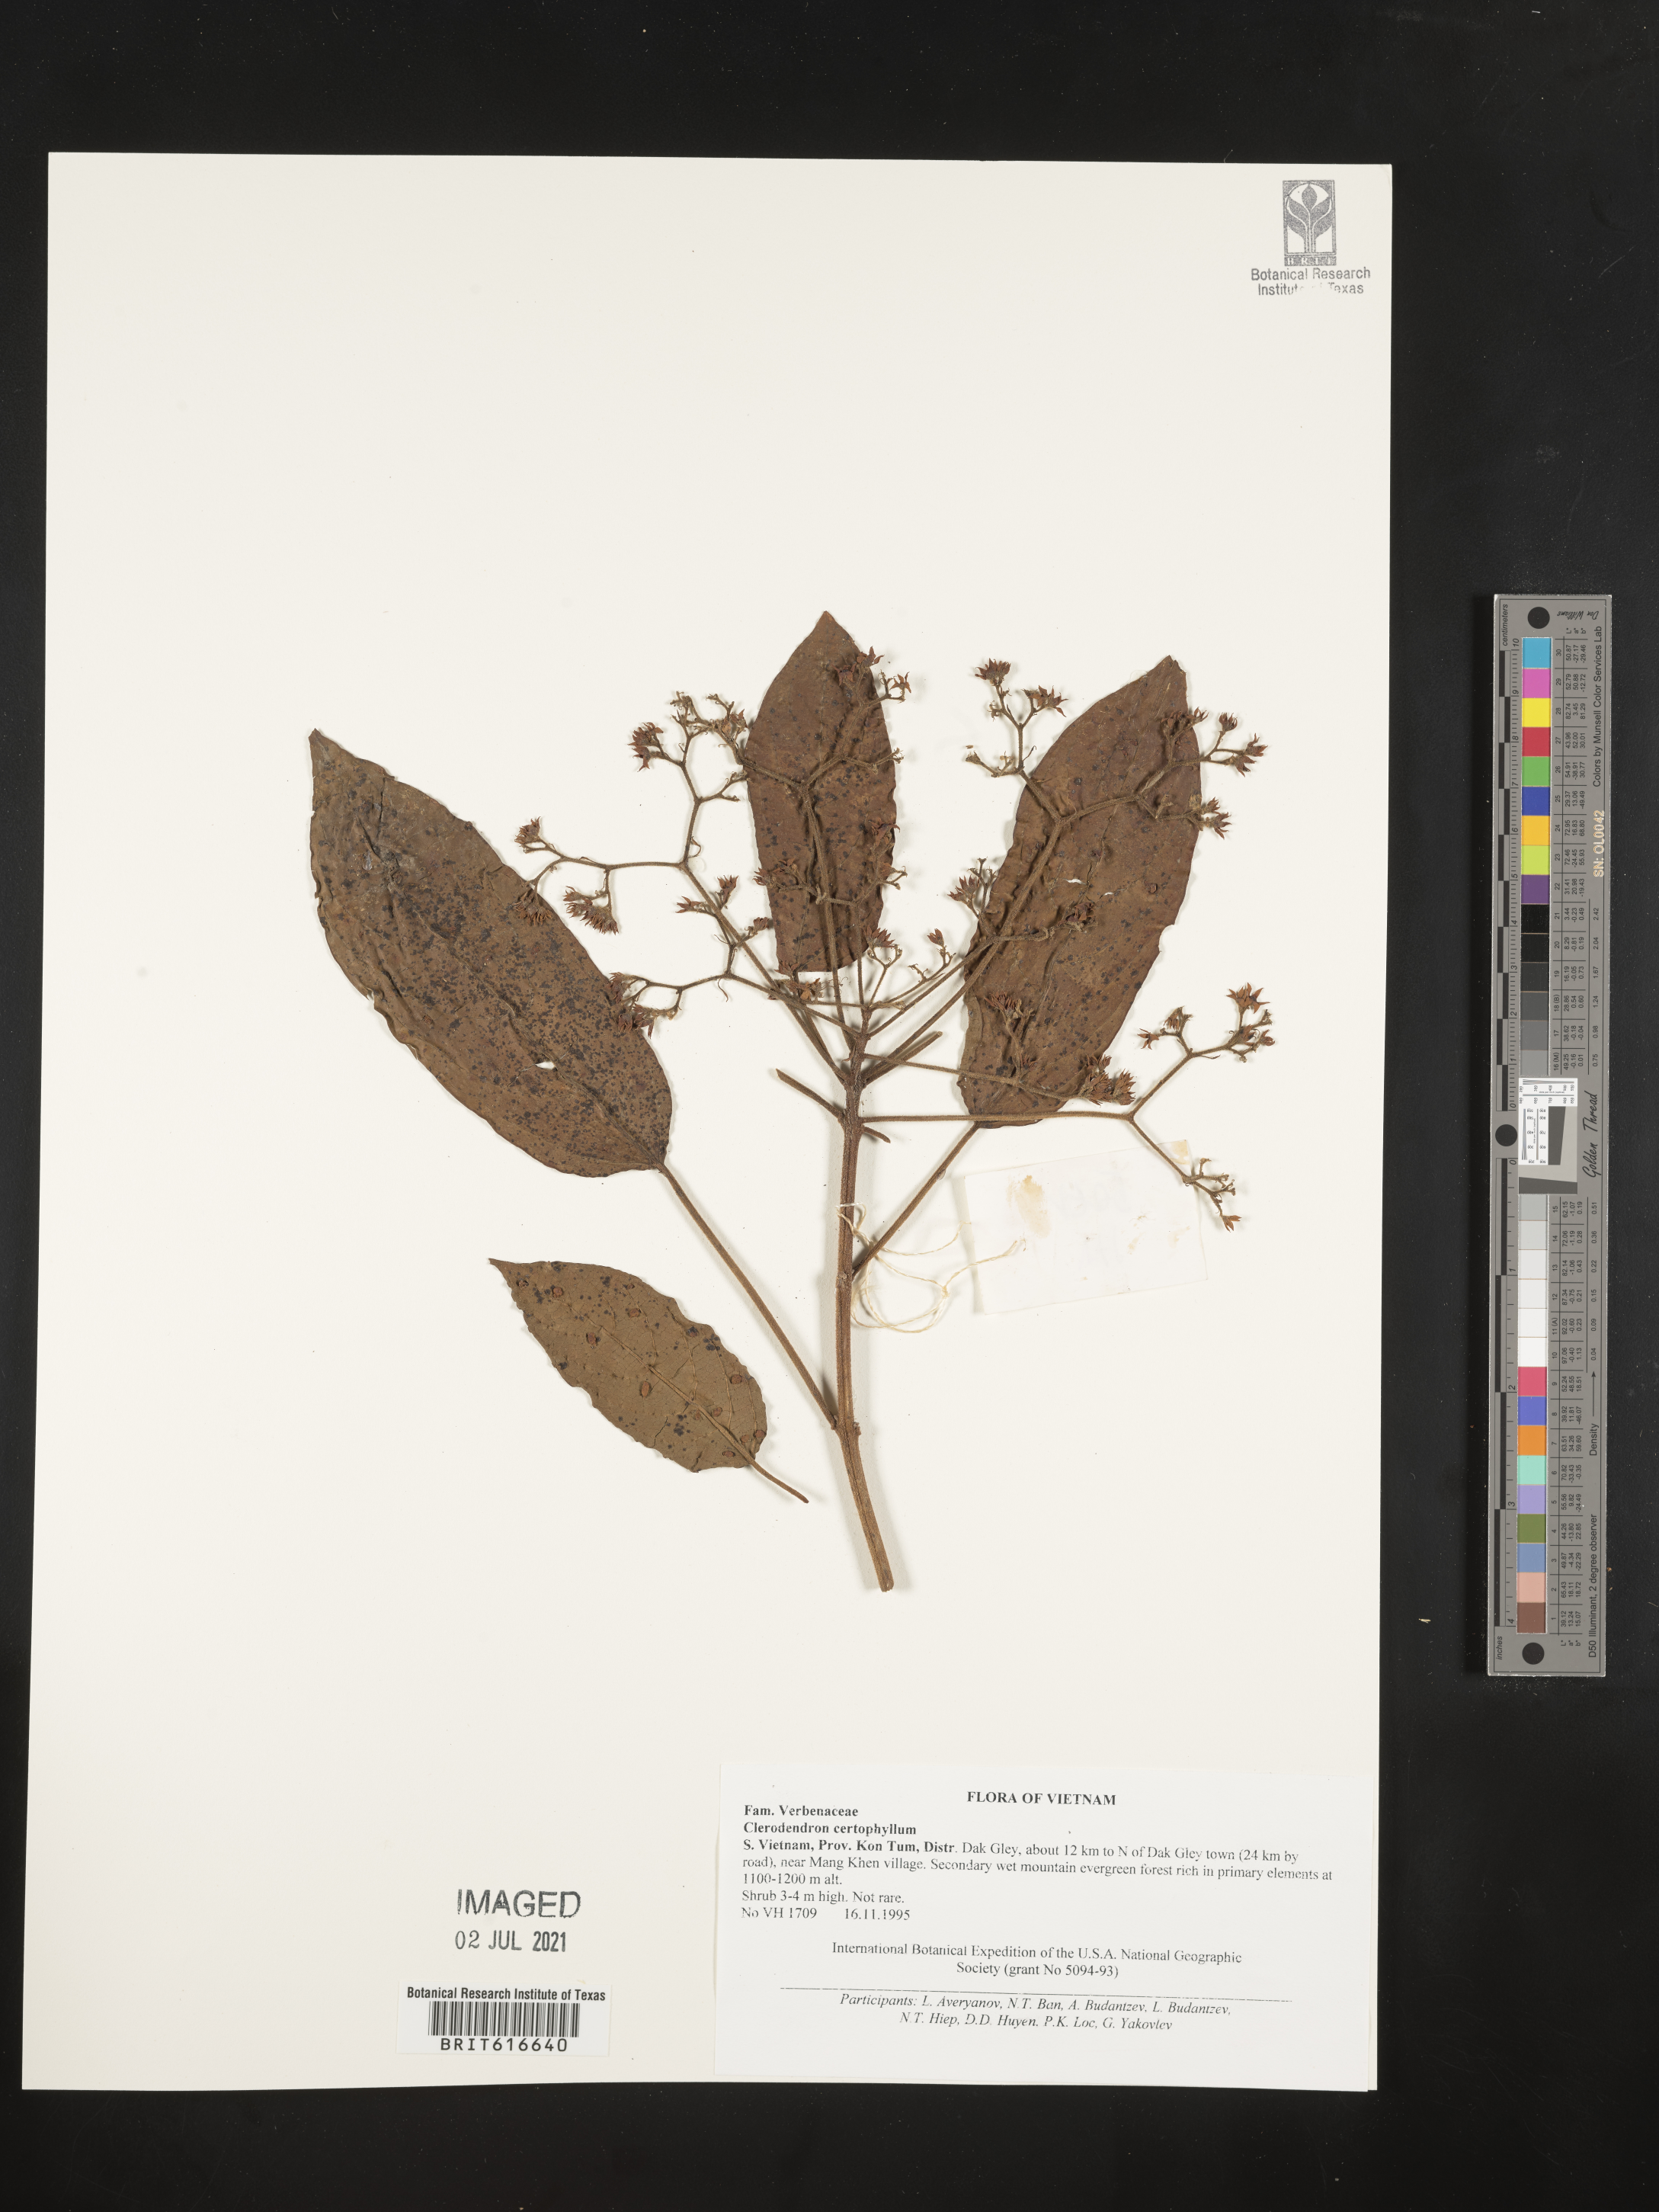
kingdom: Plantae
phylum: Tracheophyta
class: Magnoliopsida
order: Lamiales
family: Lamiaceae
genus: Clerodendrum
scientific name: Clerodendrum cyrtophyllum
